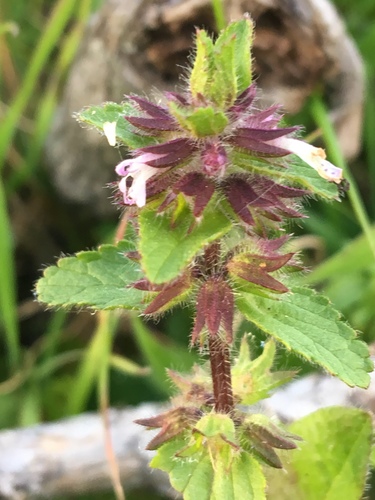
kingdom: Plantae
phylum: Tracheophyta
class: Magnoliopsida
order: Lamiales
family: Lamiaceae
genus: Stachys
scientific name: Stachys arvensis
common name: Field woundwort
